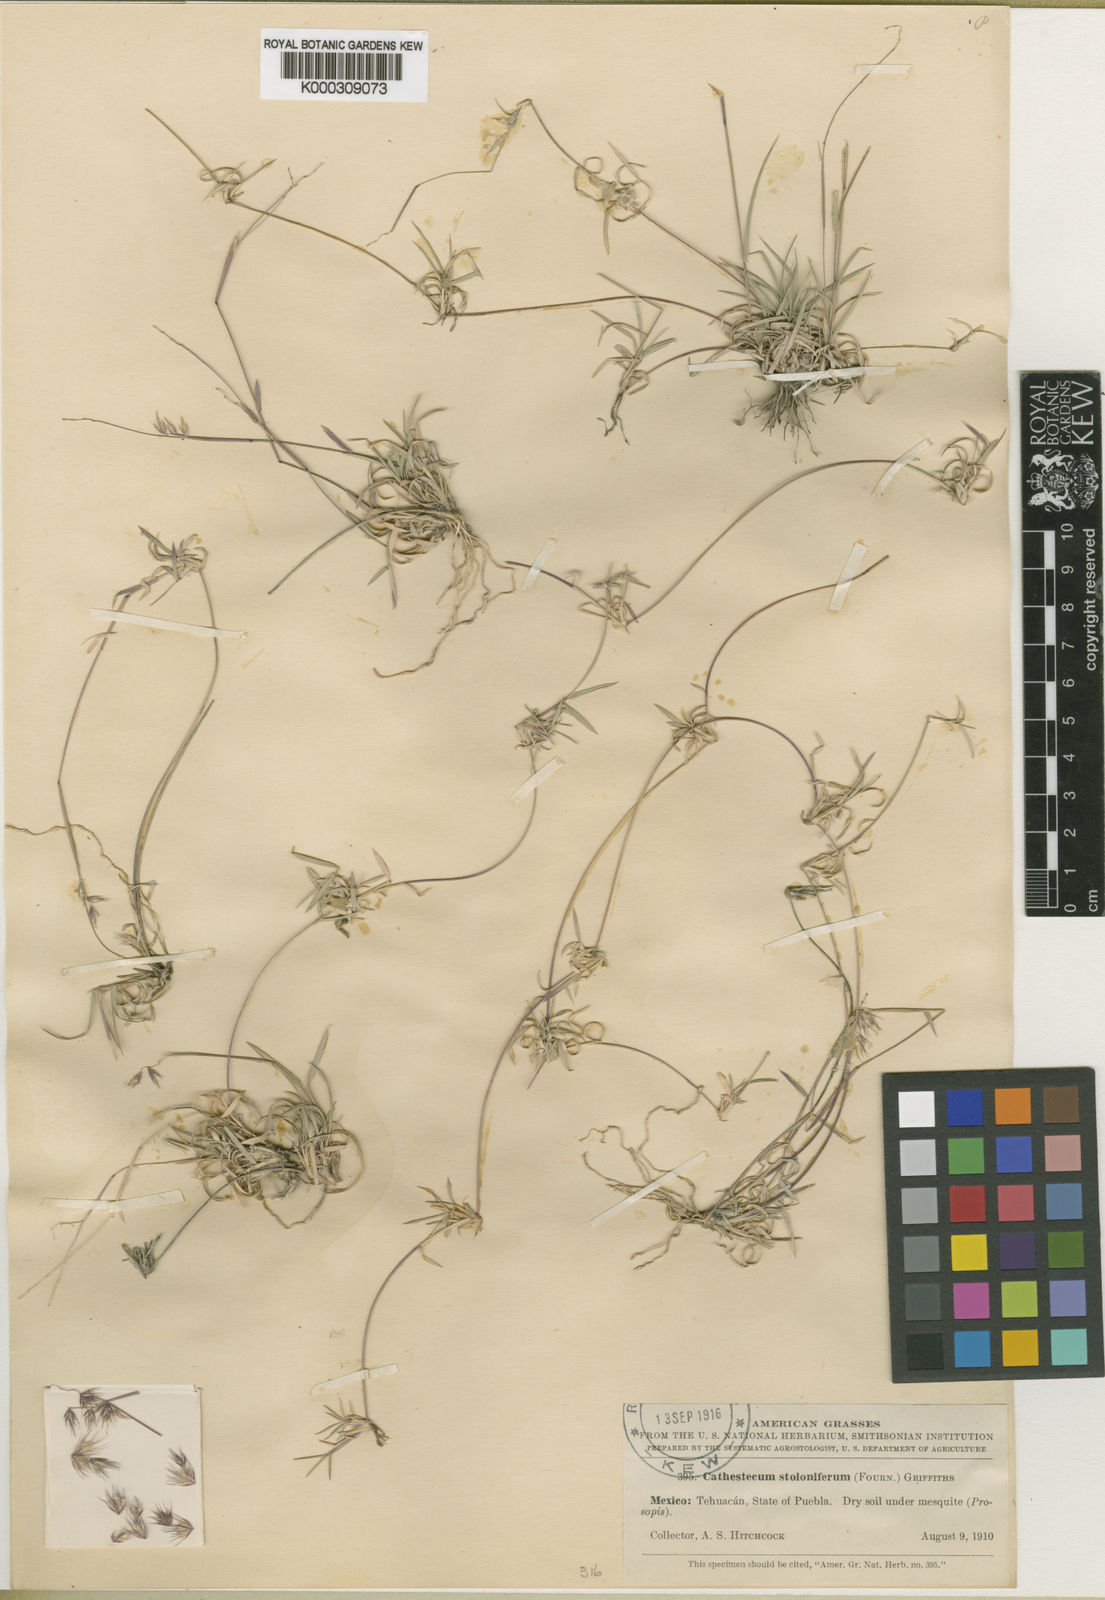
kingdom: Plantae
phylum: Tracheophyta
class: Liliopsida
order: Poales
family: Poaceae
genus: Bouteloua
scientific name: Bouteloua varia
